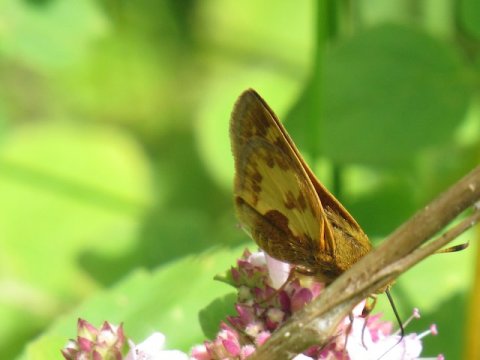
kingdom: Animalia
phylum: Arthropoda
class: Insecta
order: Lepidoptera
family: Hesperiidae
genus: Polites
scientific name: Polites coras
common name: Peck's Skipper
